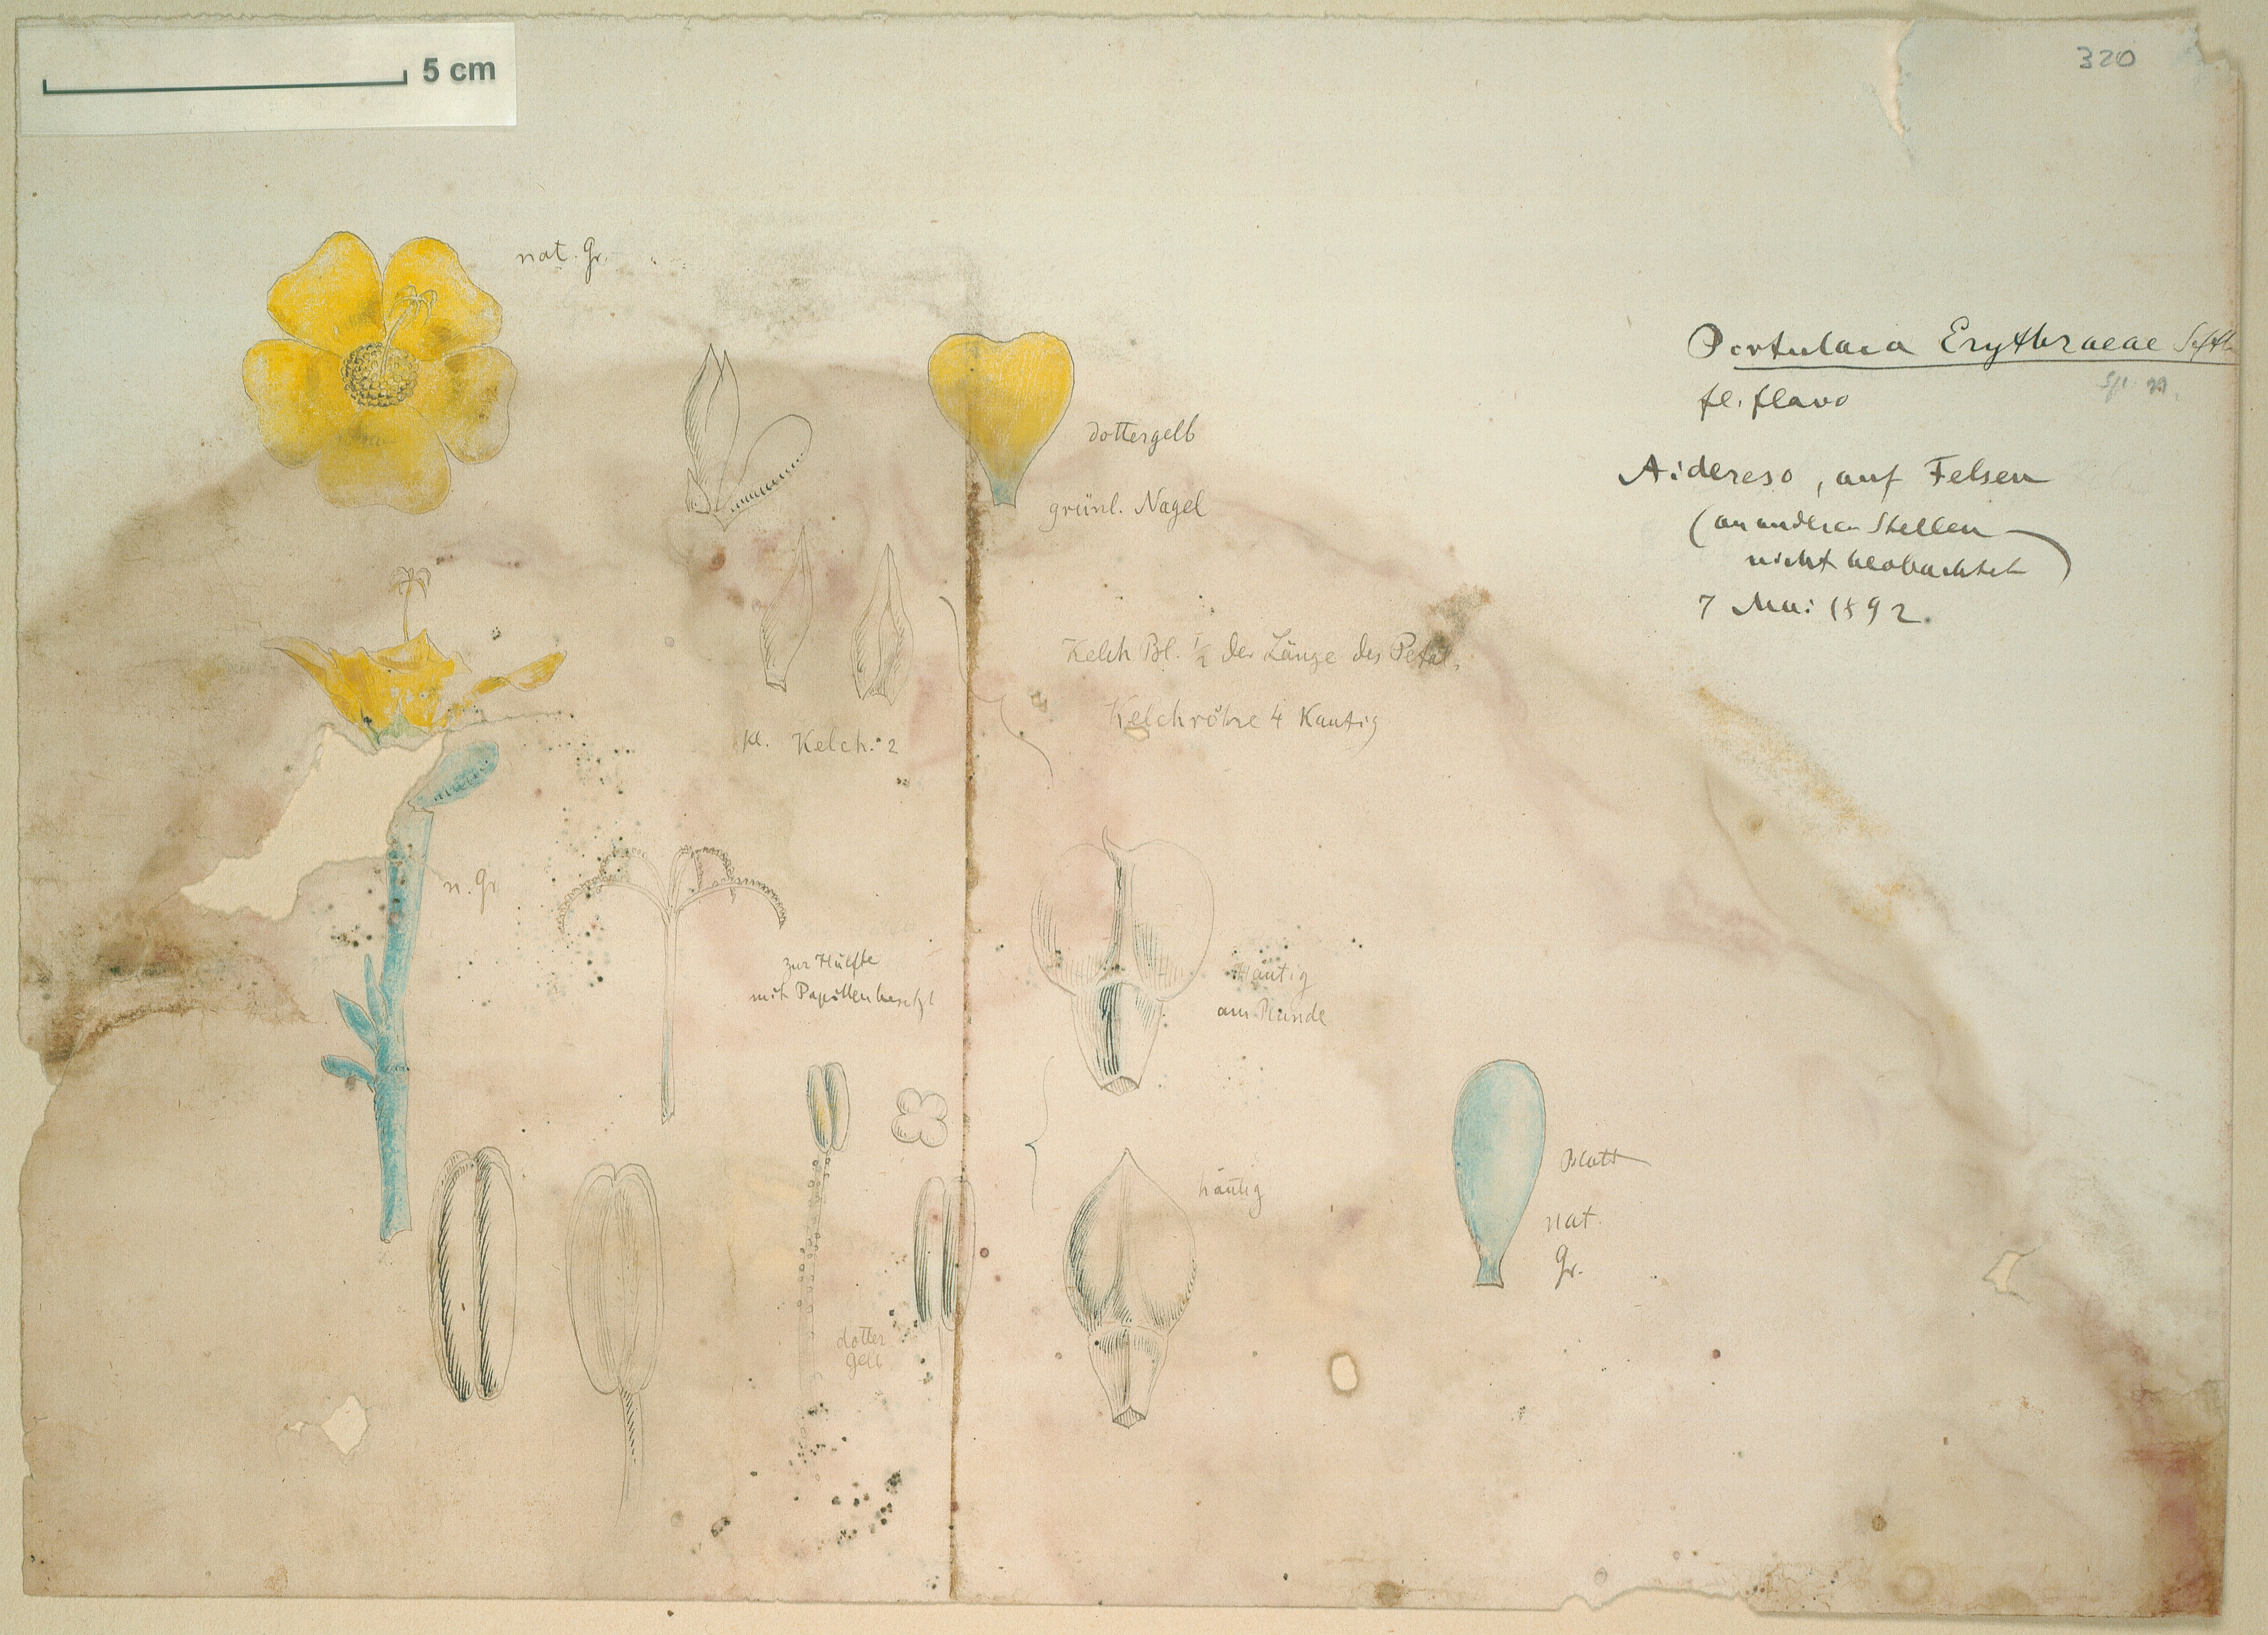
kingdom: Plantae
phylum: Tracheophyta
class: Magnoliopsida
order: Caryophyllales
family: Portulacaceae
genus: Portulaca
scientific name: Portulaca erythraeae
